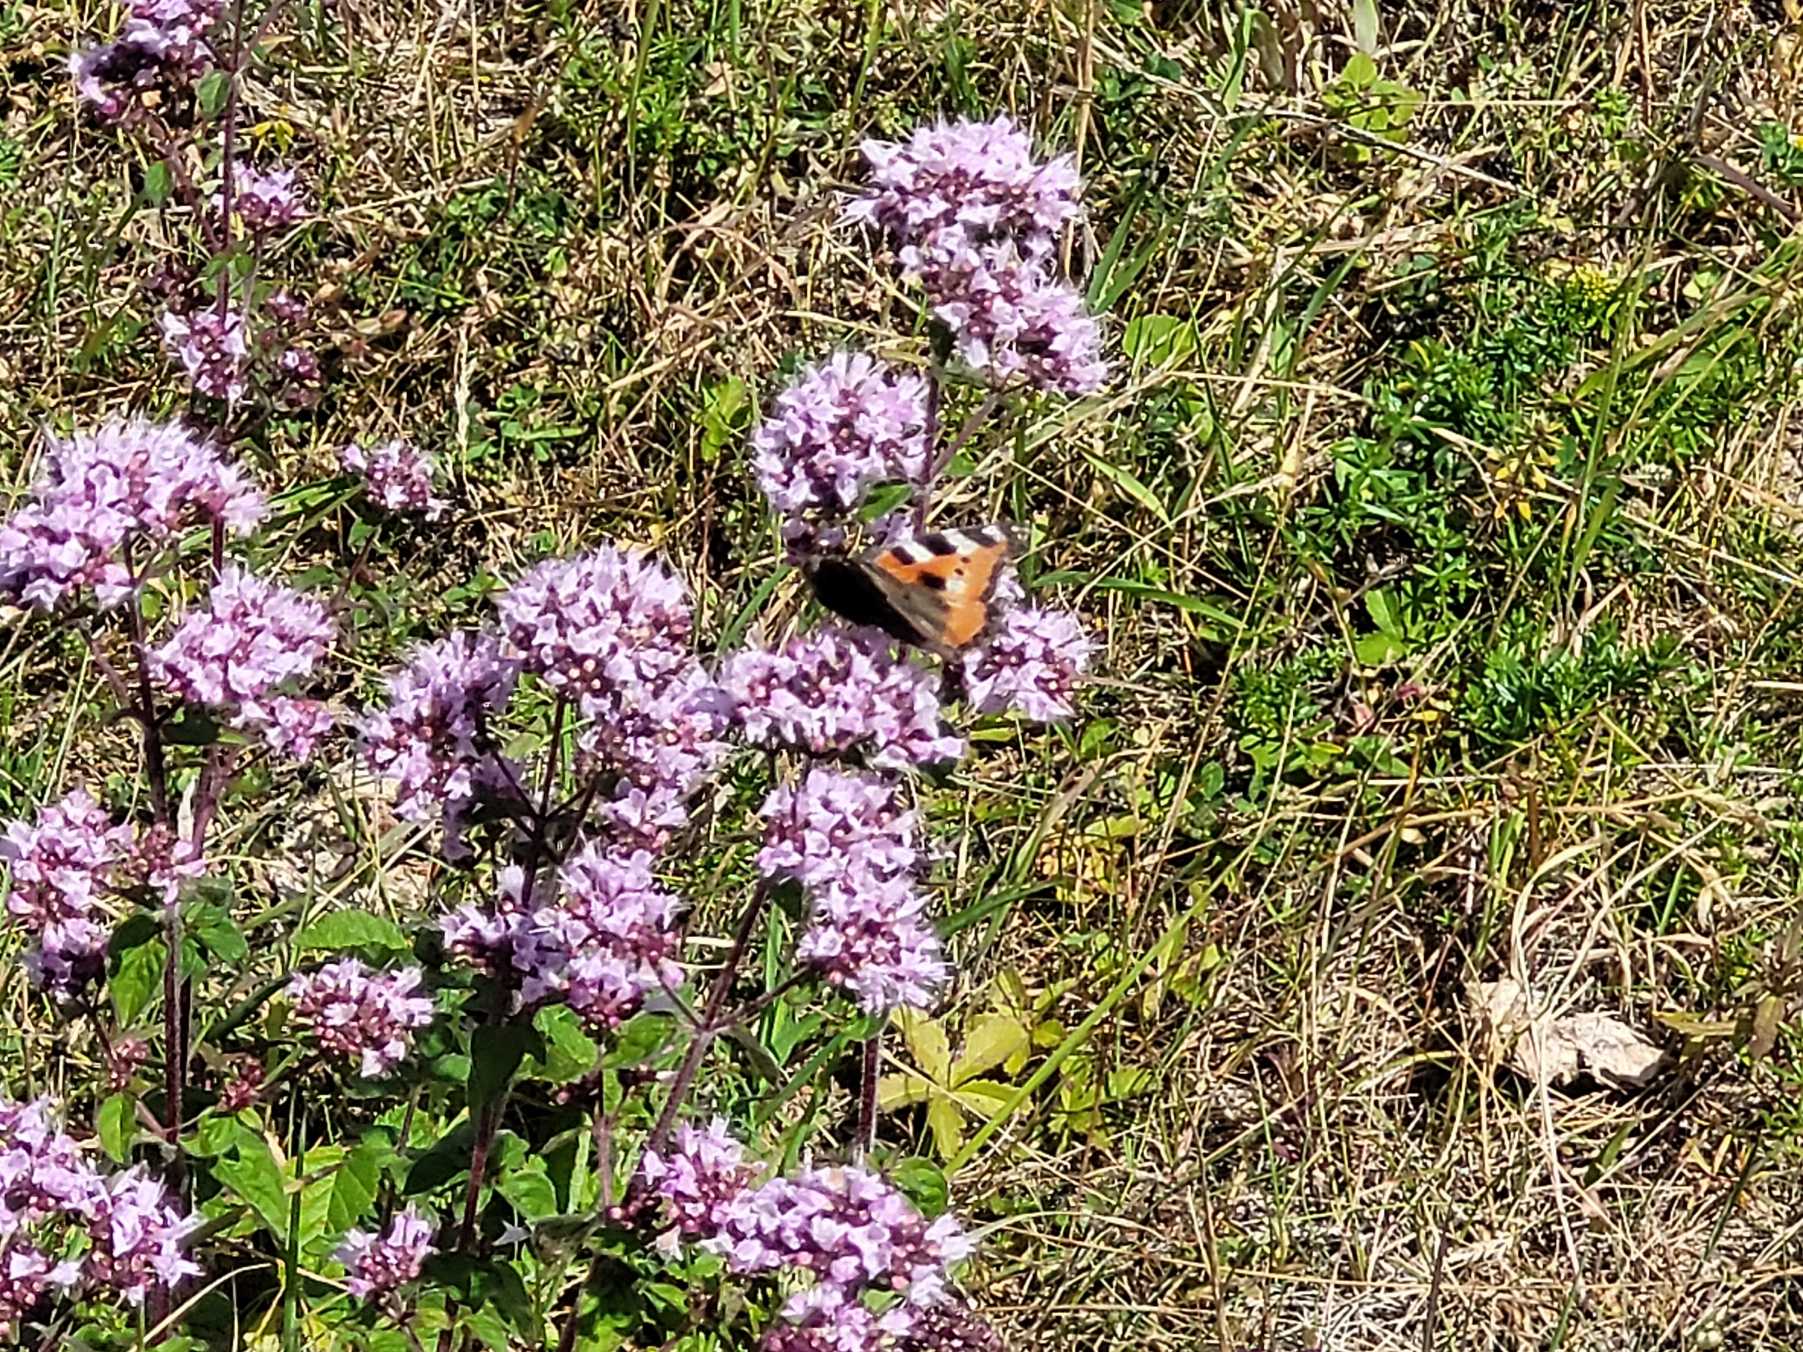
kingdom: Animalia
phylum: Arthropoda
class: Insecta
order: Lepidoptera
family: Nymphalidae
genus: Aglais
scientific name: Aglais urticae
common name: Nældens takvinge
